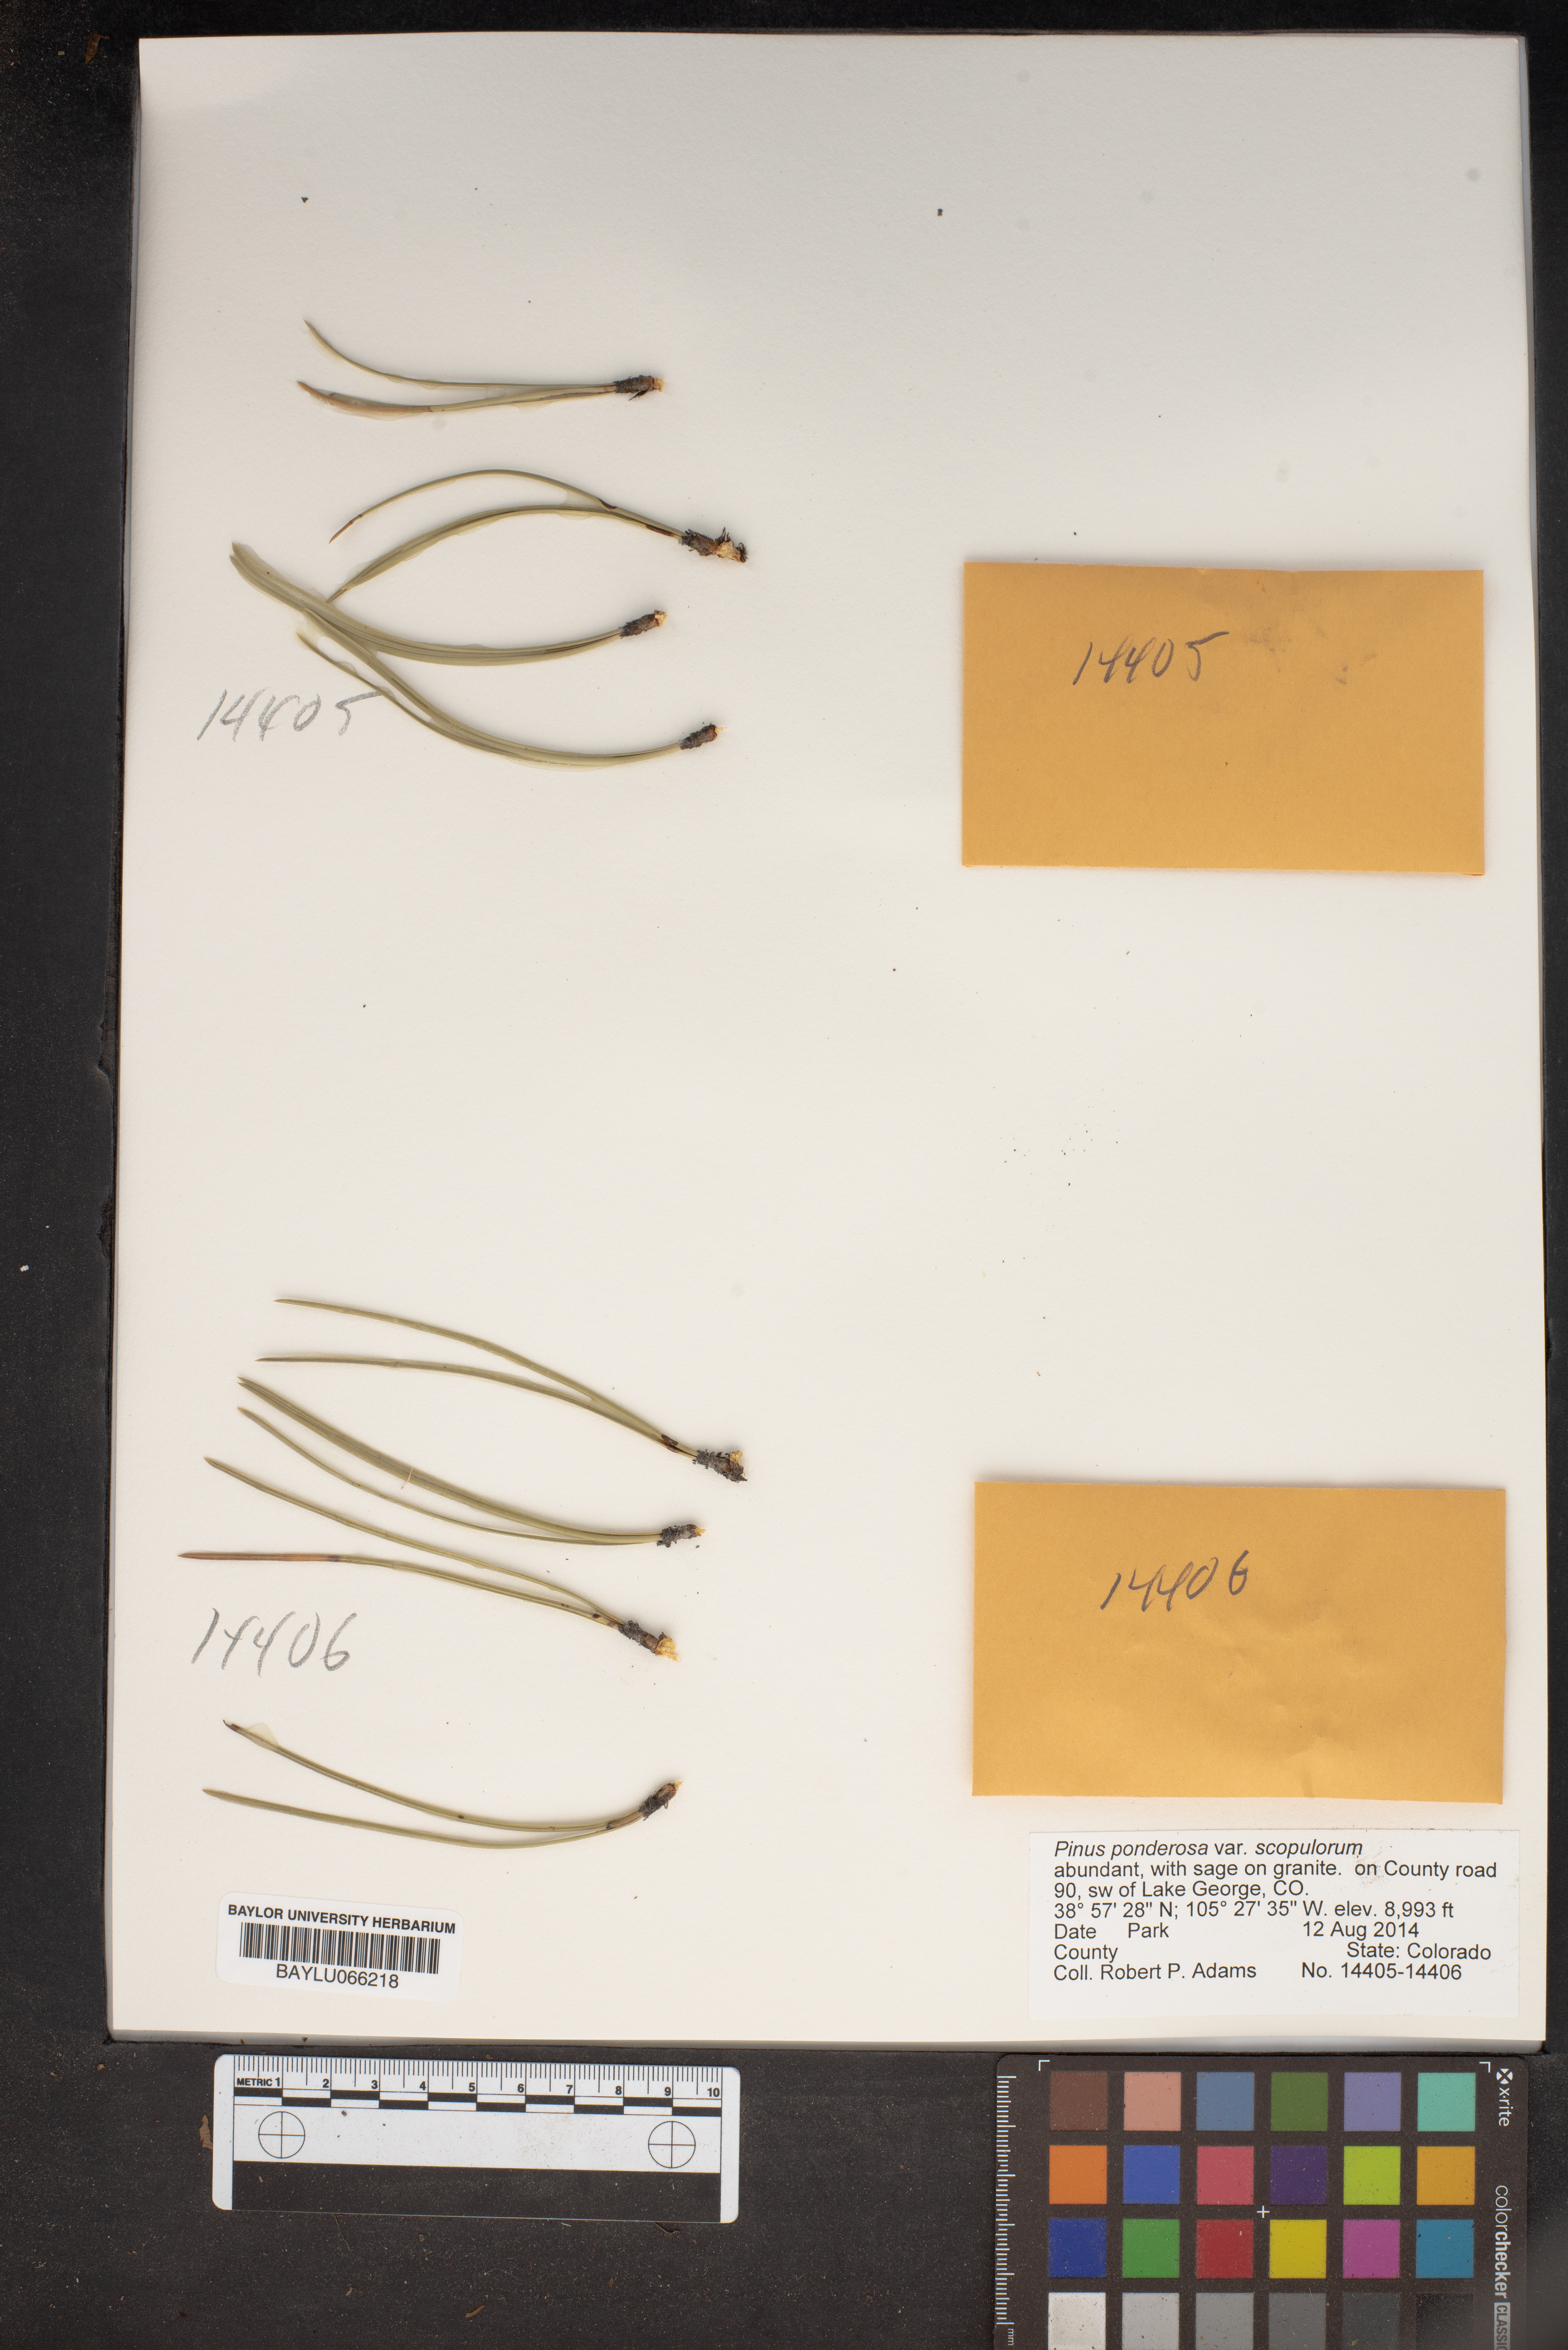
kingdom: Plantae
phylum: Tracheophyta
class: Pinopsida
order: Pinales
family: Pinaceae
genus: Pinus
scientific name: Pinus ponderosa
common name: Western yellow-pine
